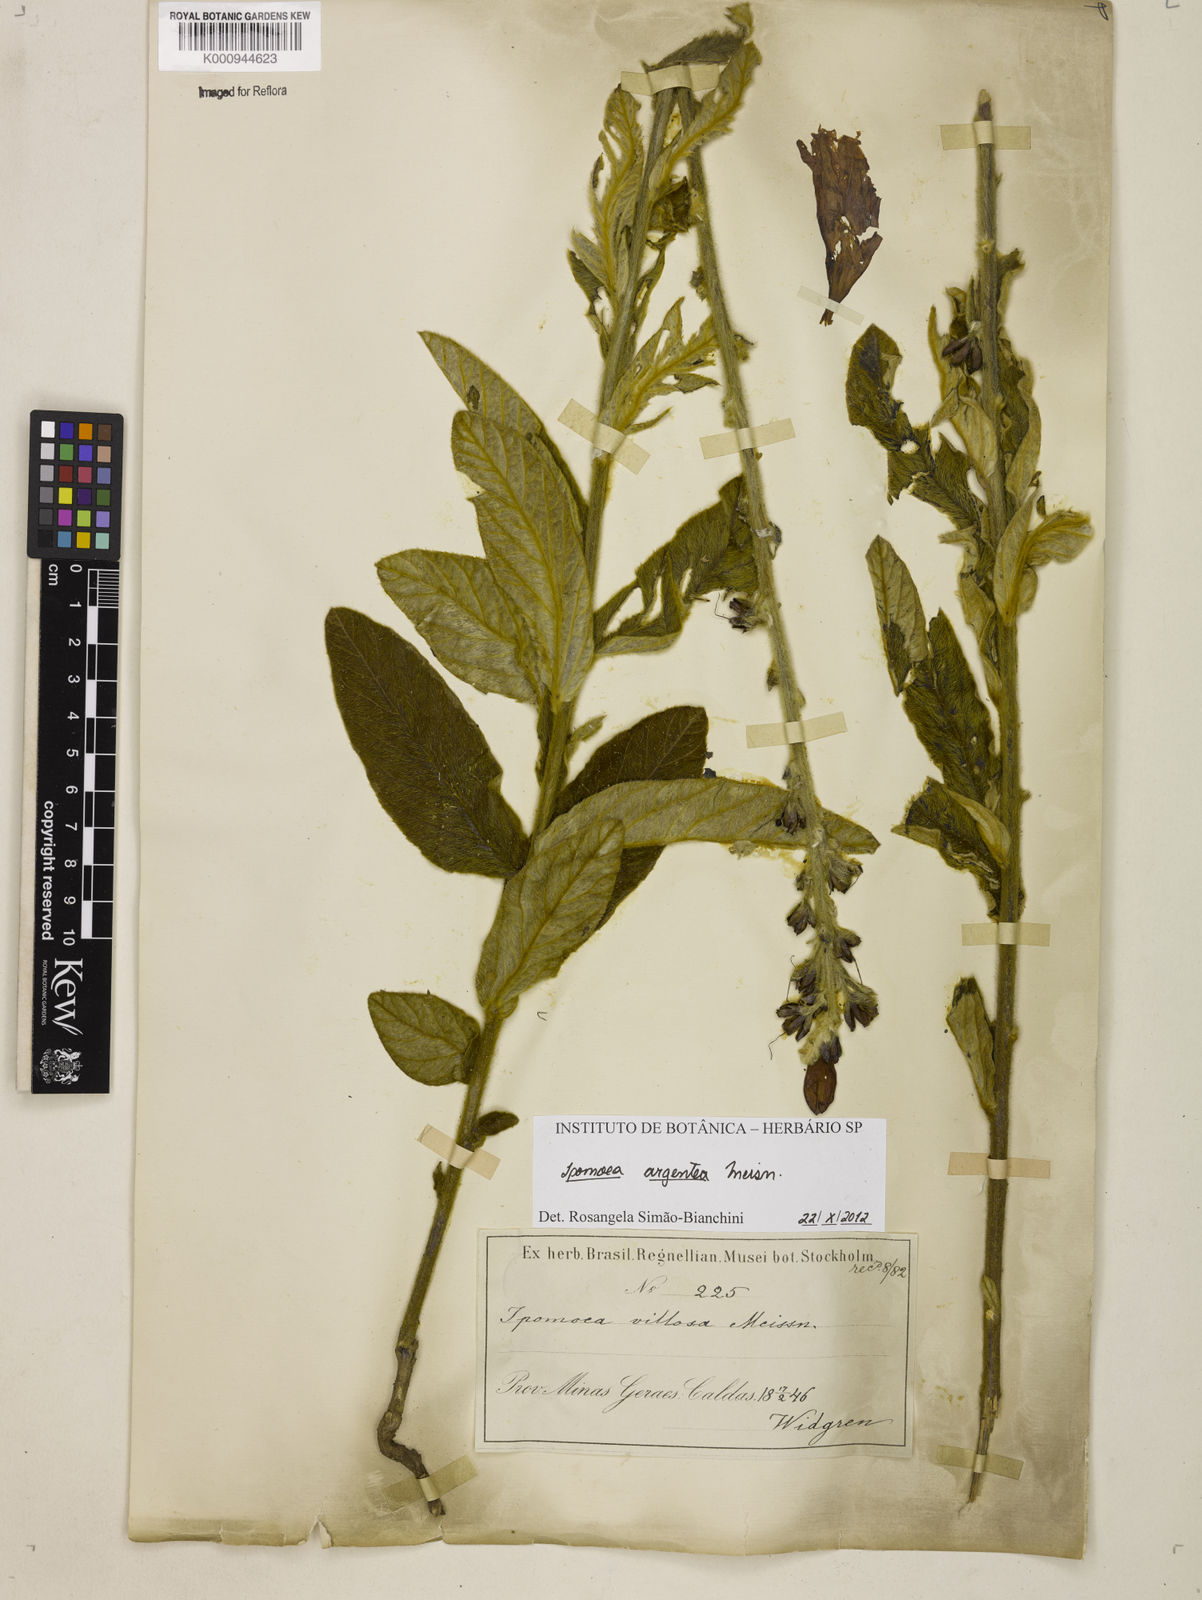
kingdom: Plantae
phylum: Tracheophyta
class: Magnoliopsida
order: Solanales
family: Convolvulaceae
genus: Ipomoea
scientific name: Ipomoea argentea
